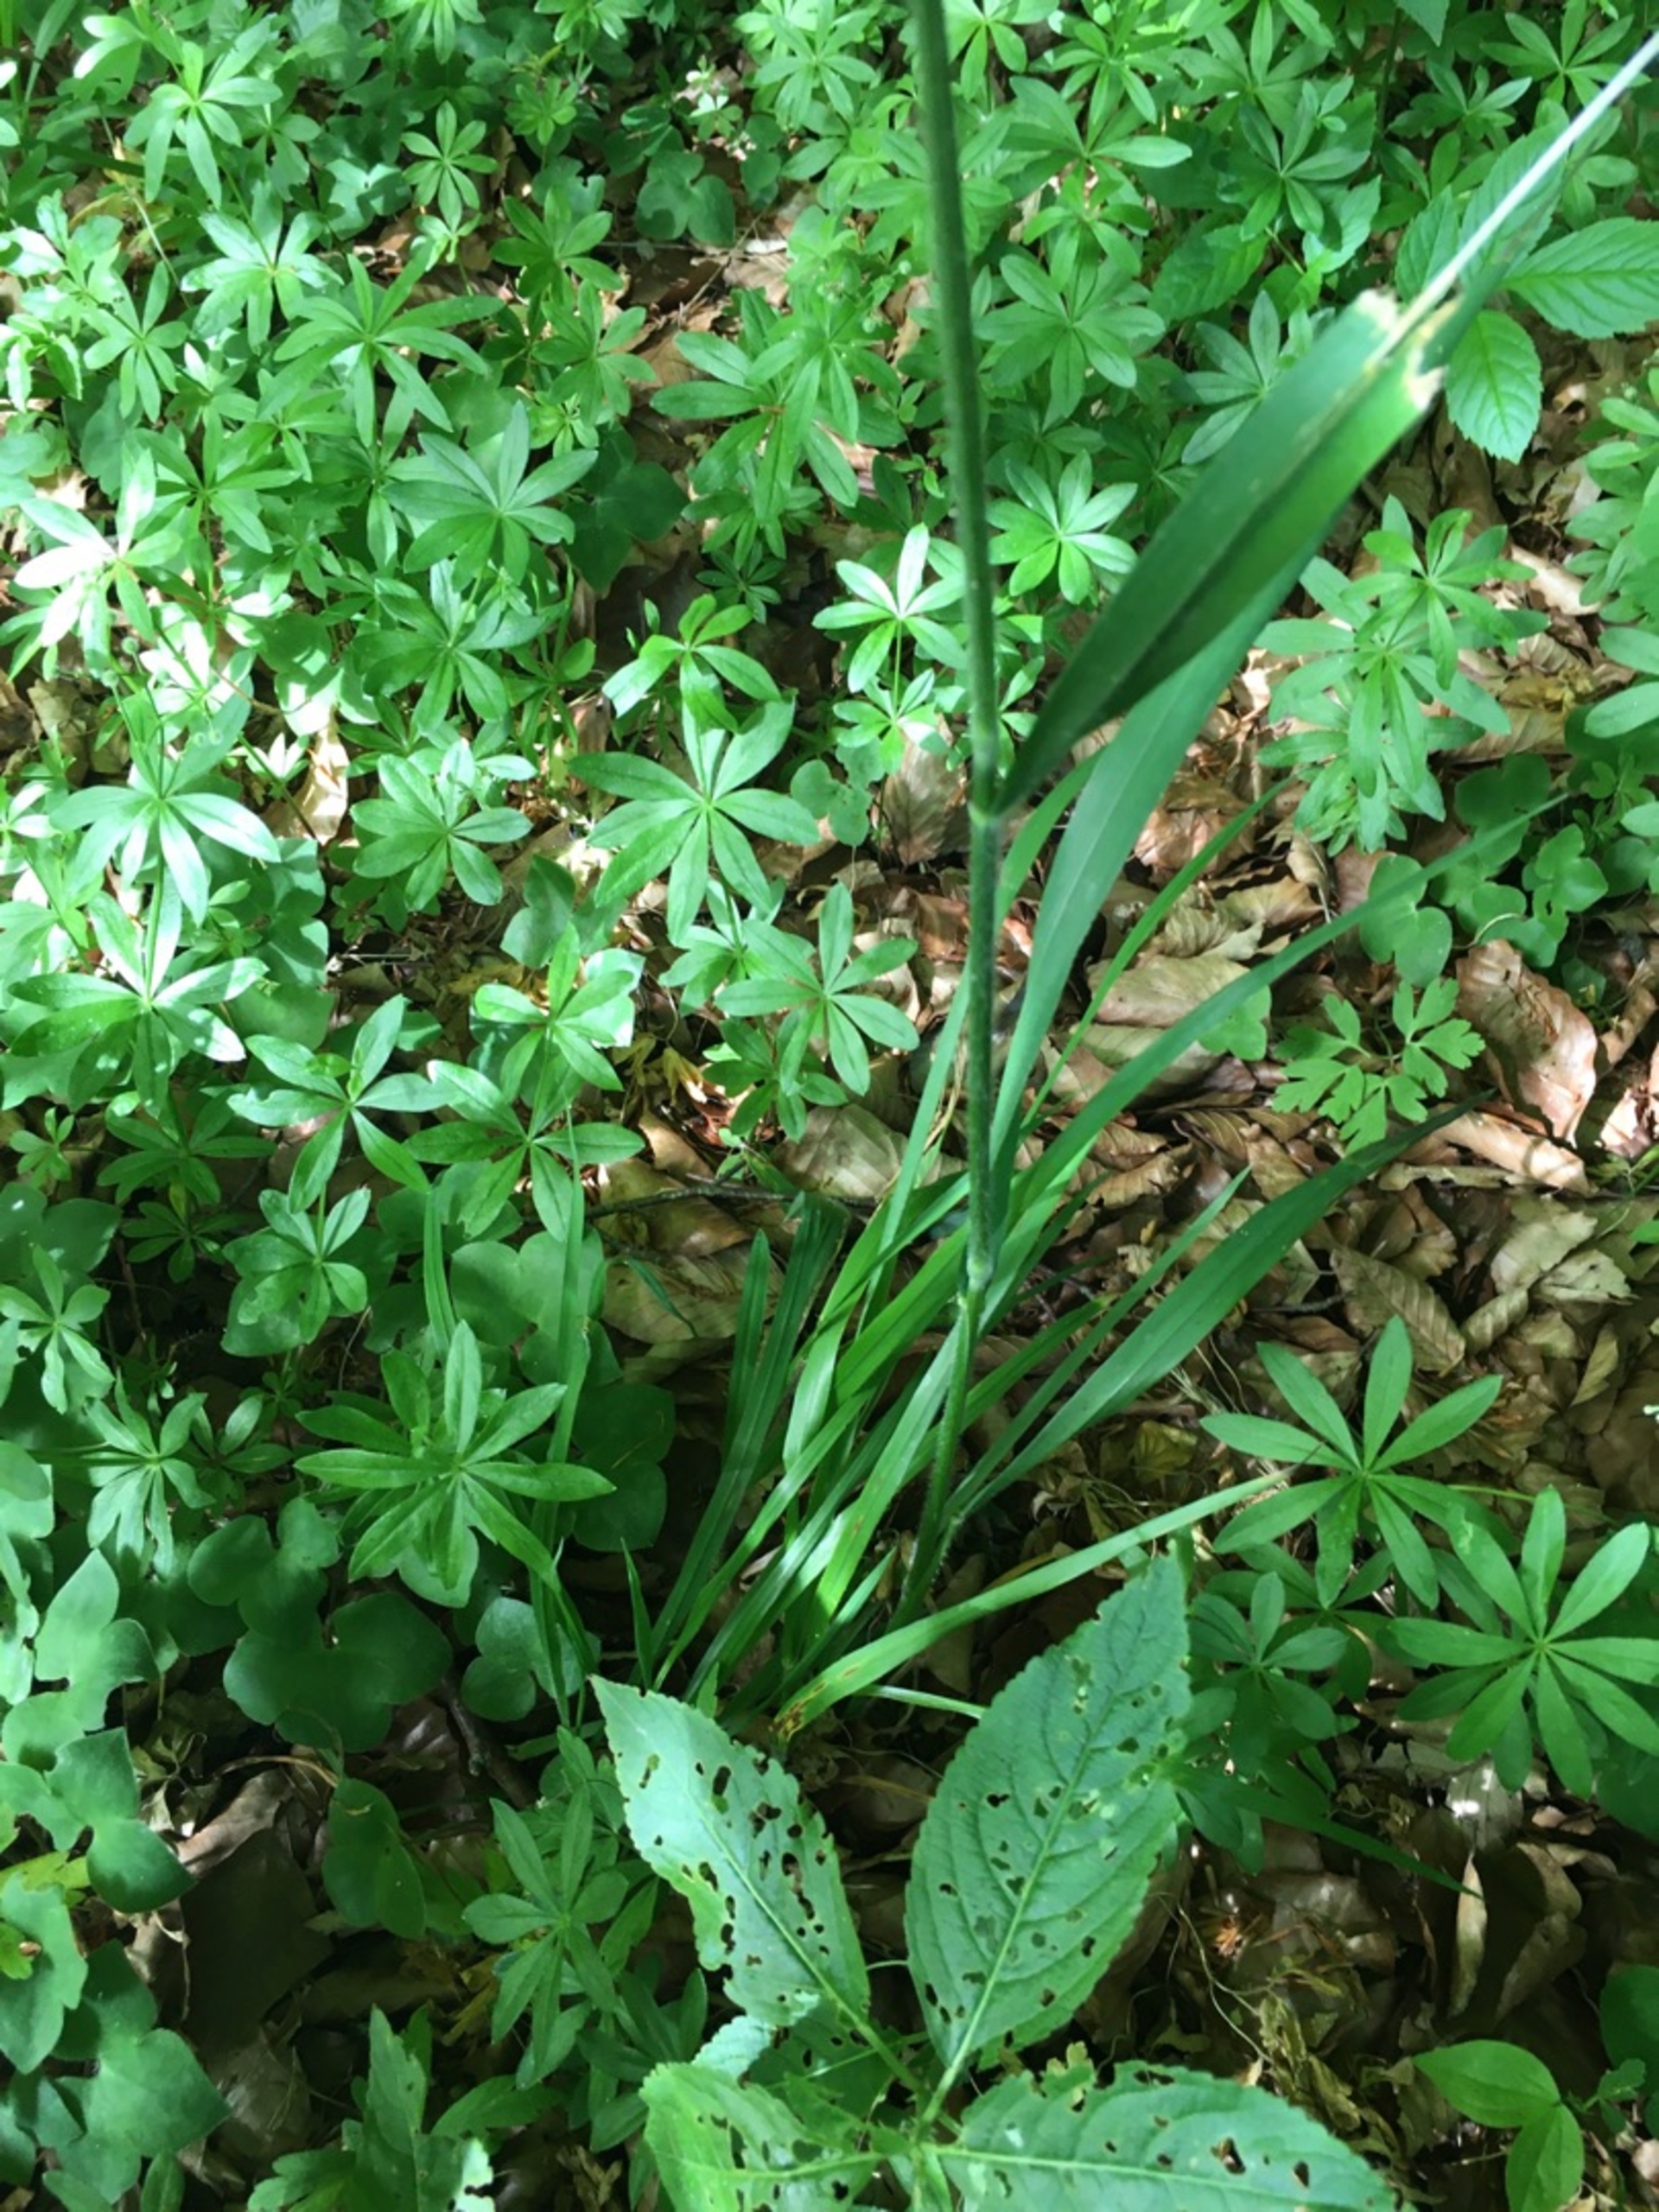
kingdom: Plantae
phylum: Tracheophyta
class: Liliopsida
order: Poales
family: Poaceae
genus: Hordelymus
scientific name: Hordelymus europaeus
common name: Skovbyg
